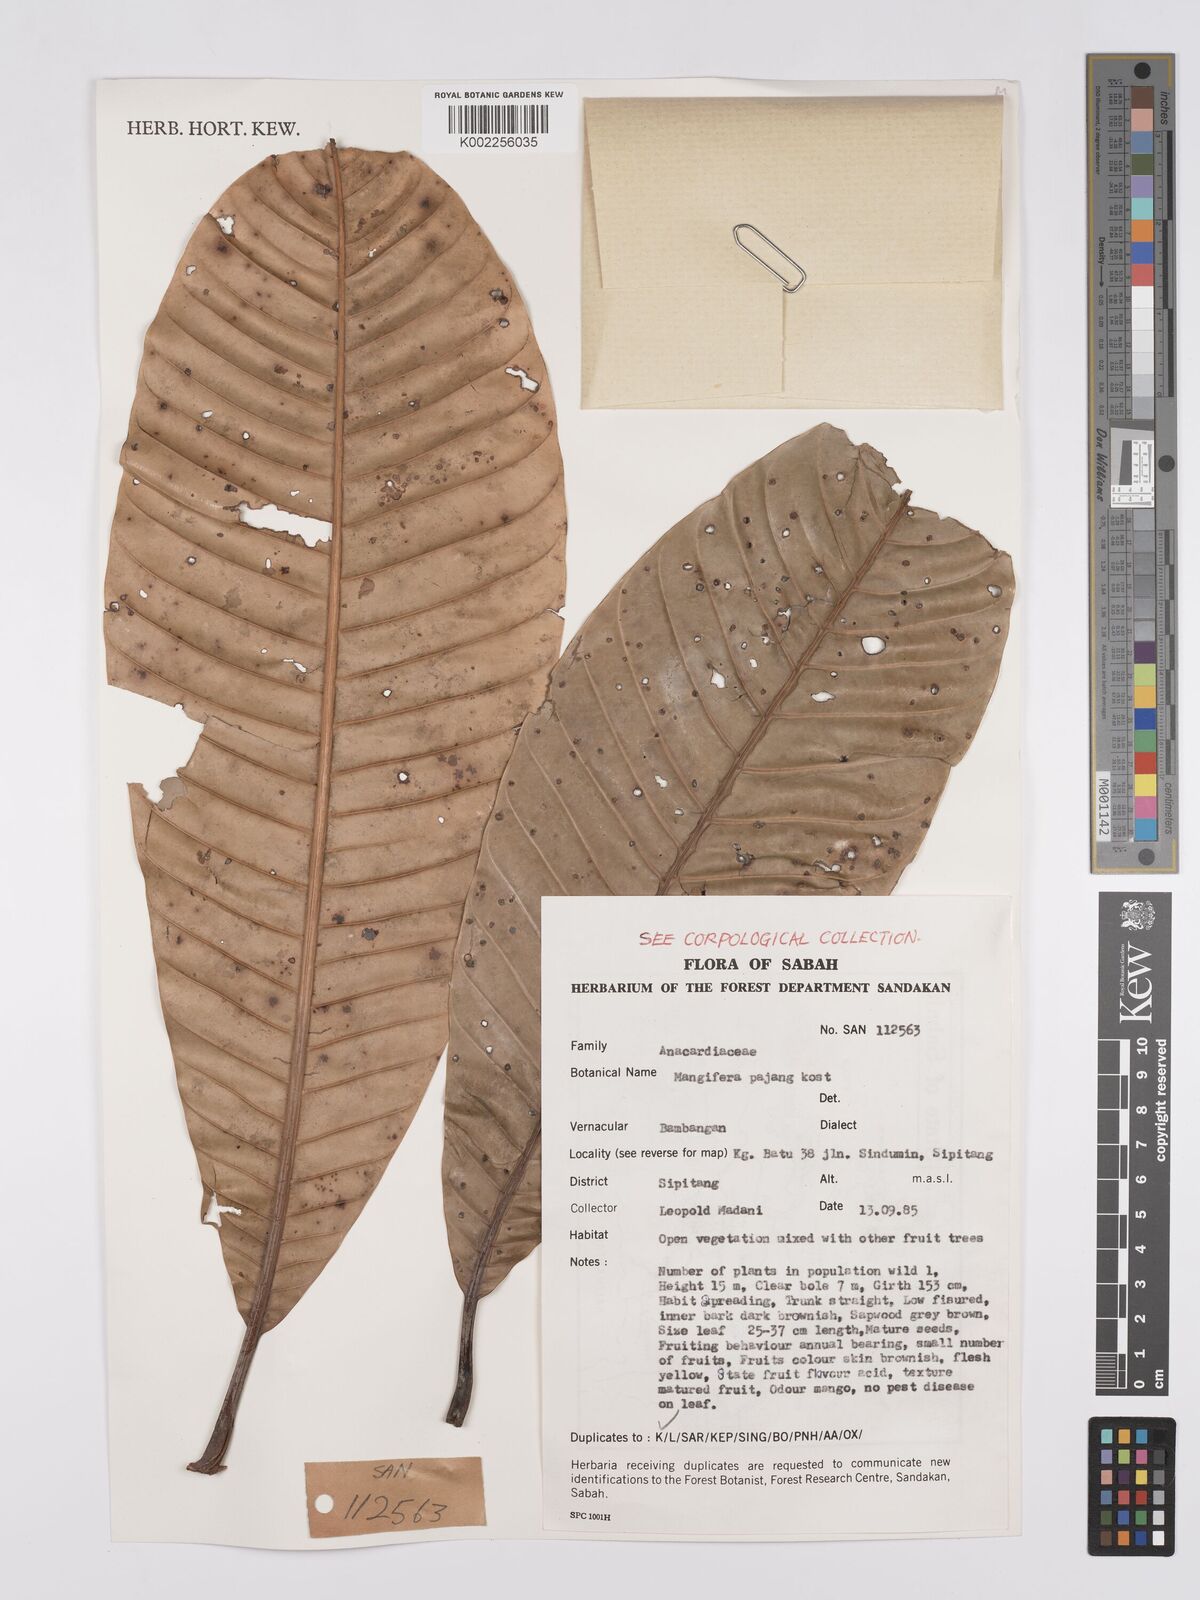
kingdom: Plantae
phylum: Tracheophyta
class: Magnoliopsida
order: Sapindales
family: Anacardiaceae
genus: Mangifera
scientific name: Mangifera pajang
